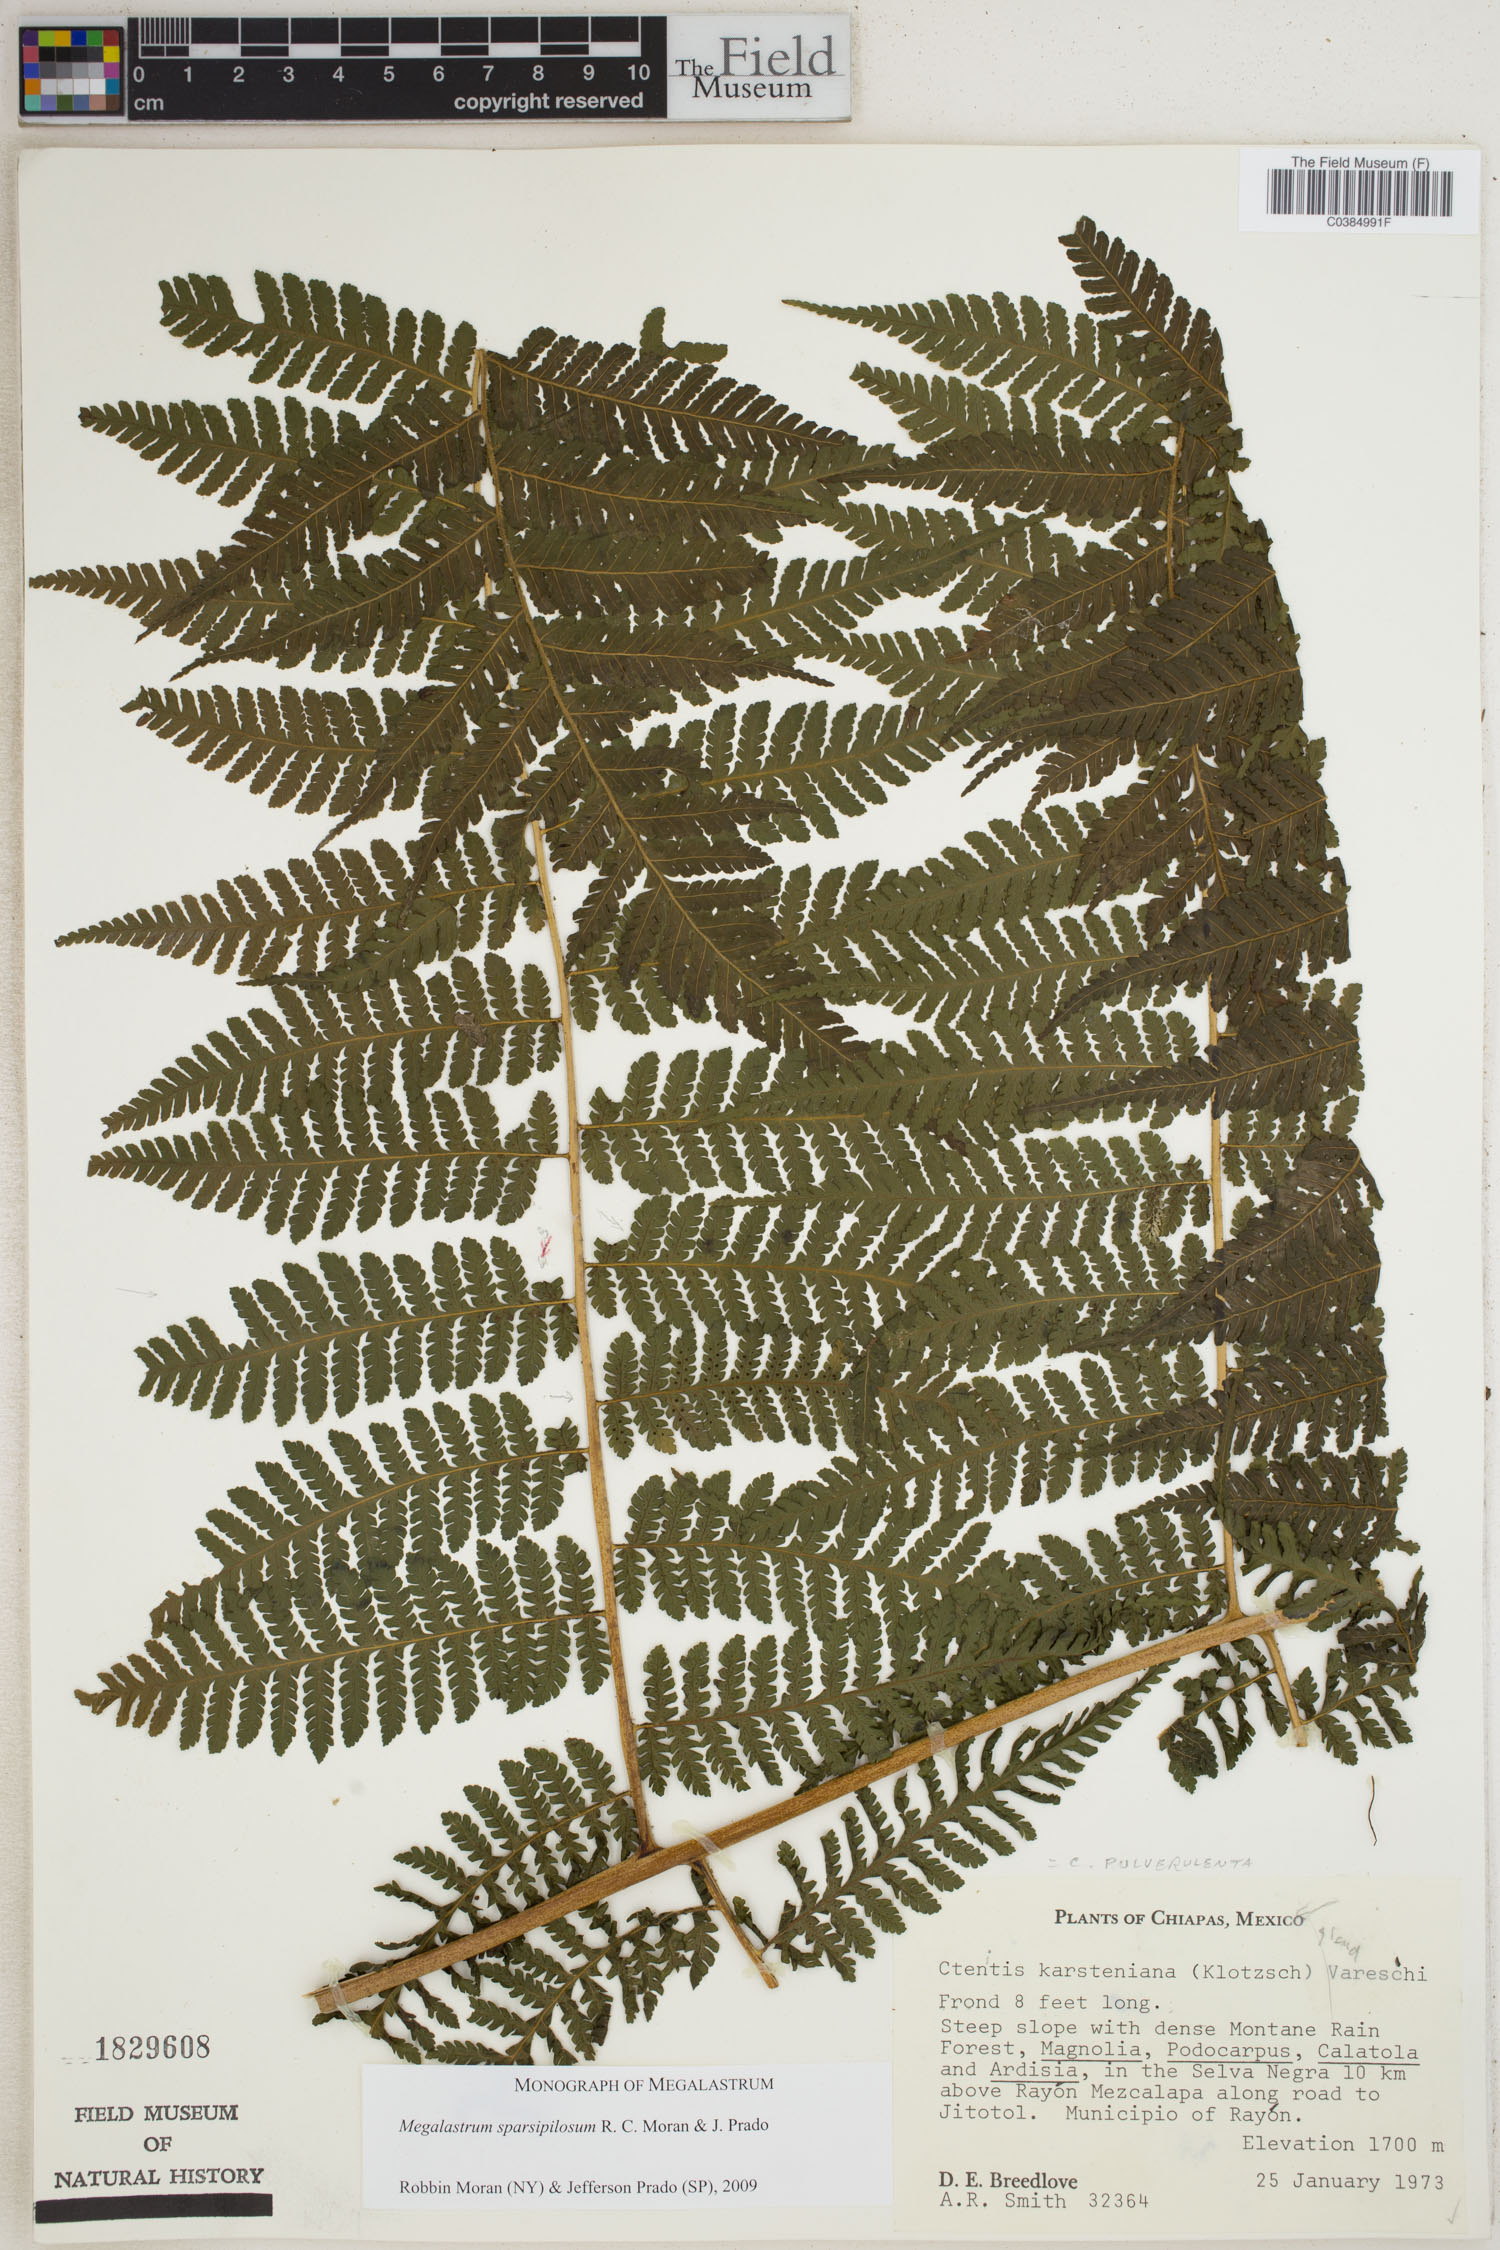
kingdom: Plantae
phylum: Tracheophyta
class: Polypodiopsida
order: Polypodiales
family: Dryopteridaceae
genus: Megalastrum
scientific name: Megalastrum sparsipilosum
